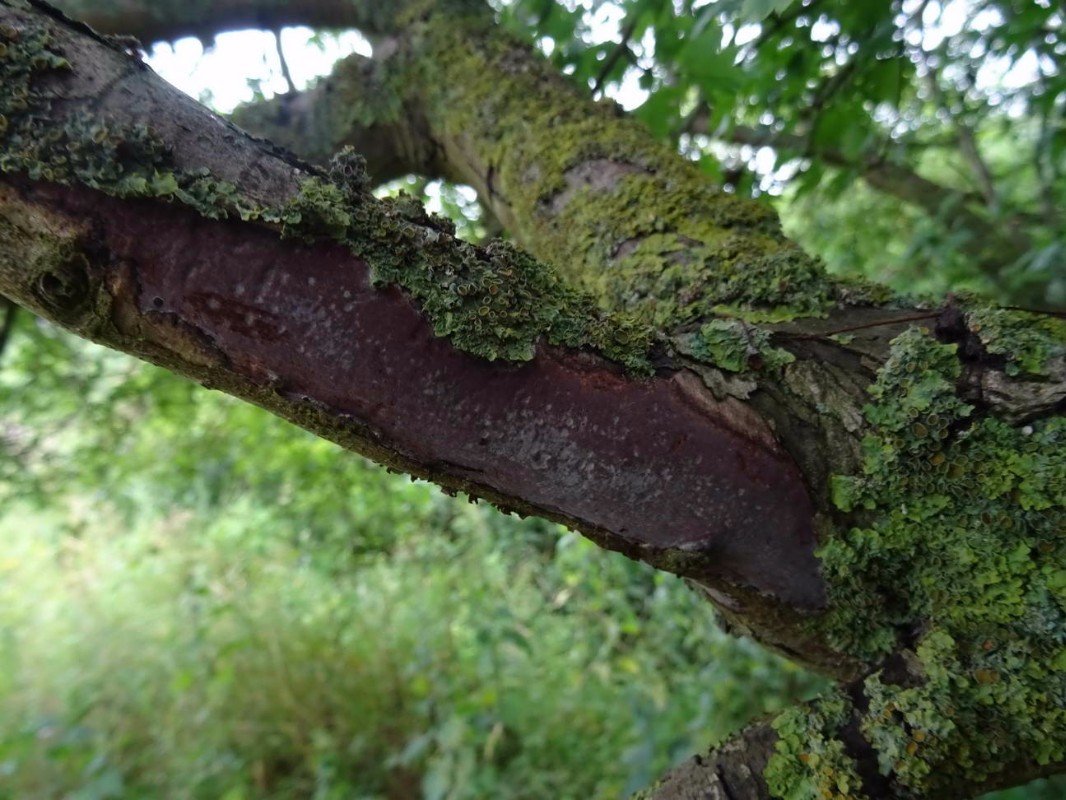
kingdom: Fungi
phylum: Basidiomycota
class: Agaricomycetes
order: Corticiales
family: Vuilleminiaceae
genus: Vuilleminia
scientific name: Vuilleminia
